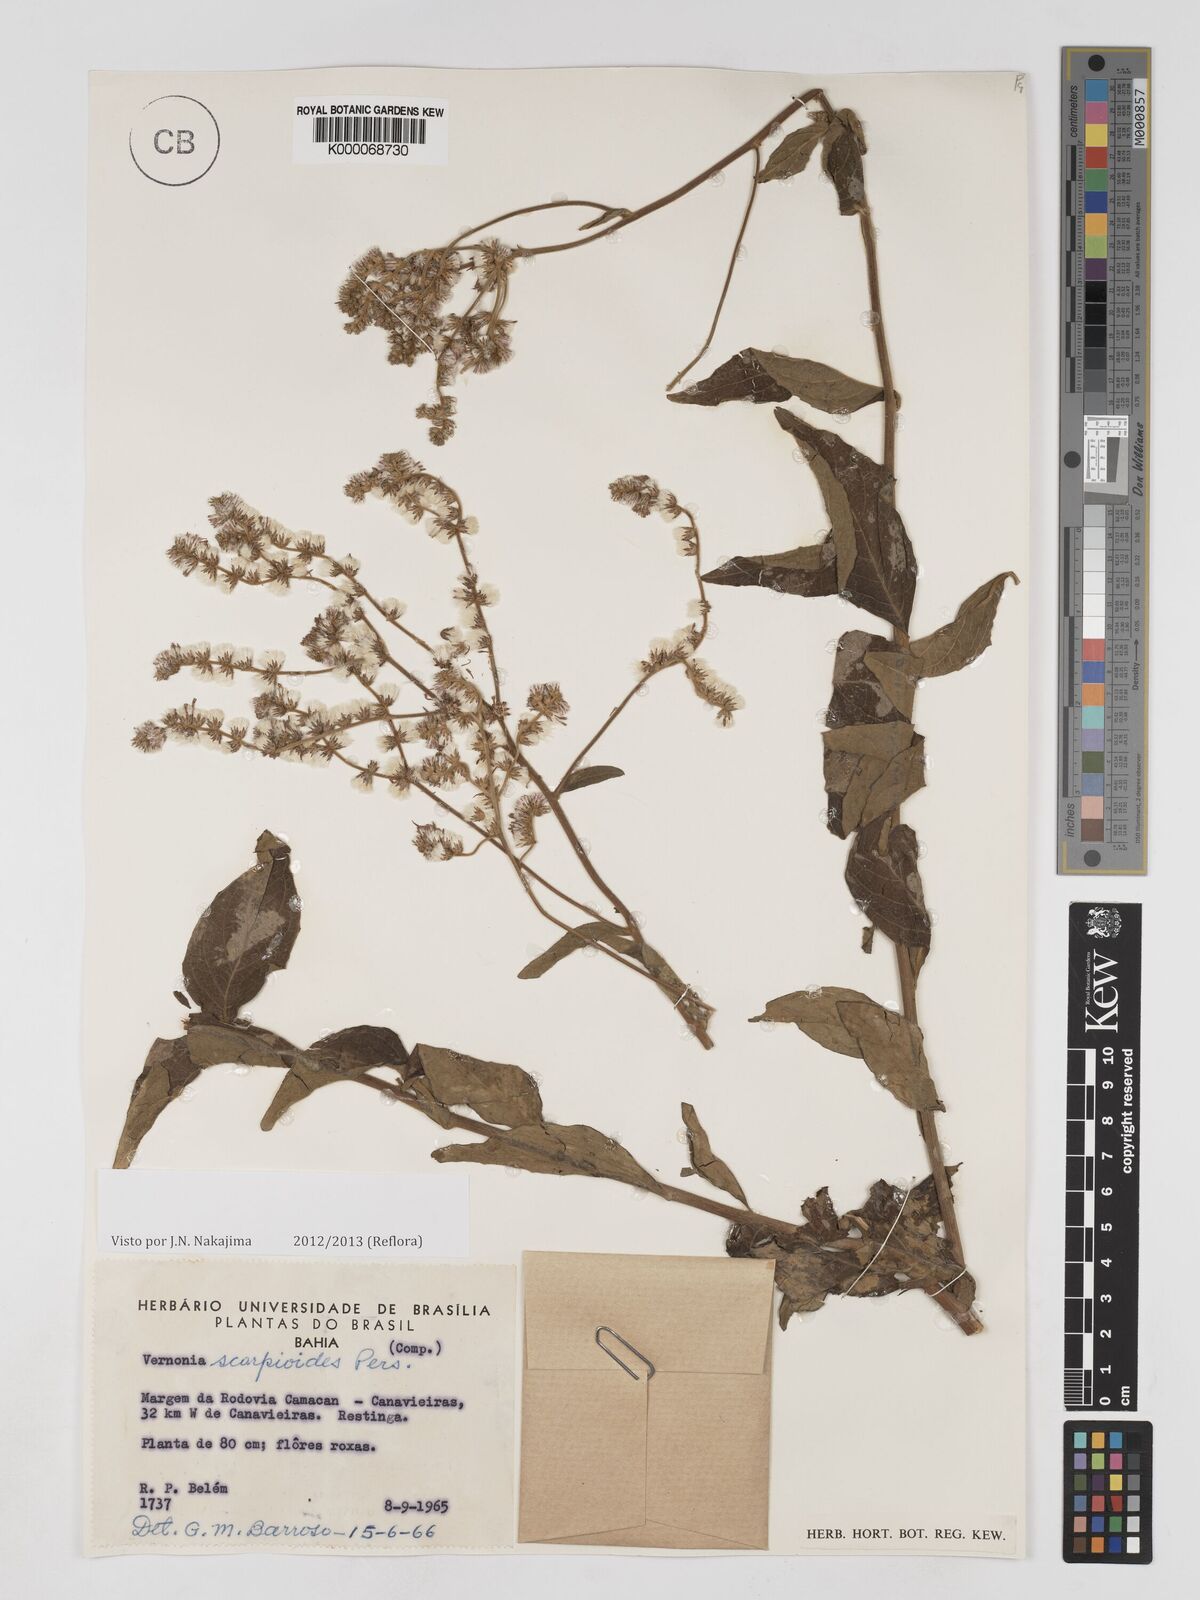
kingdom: Plantae
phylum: Tracheophyta
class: Magnoliopsida
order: Asterales
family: Asteraceae
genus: Cyrtocymura
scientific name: Cyrtocymura scorpioides
